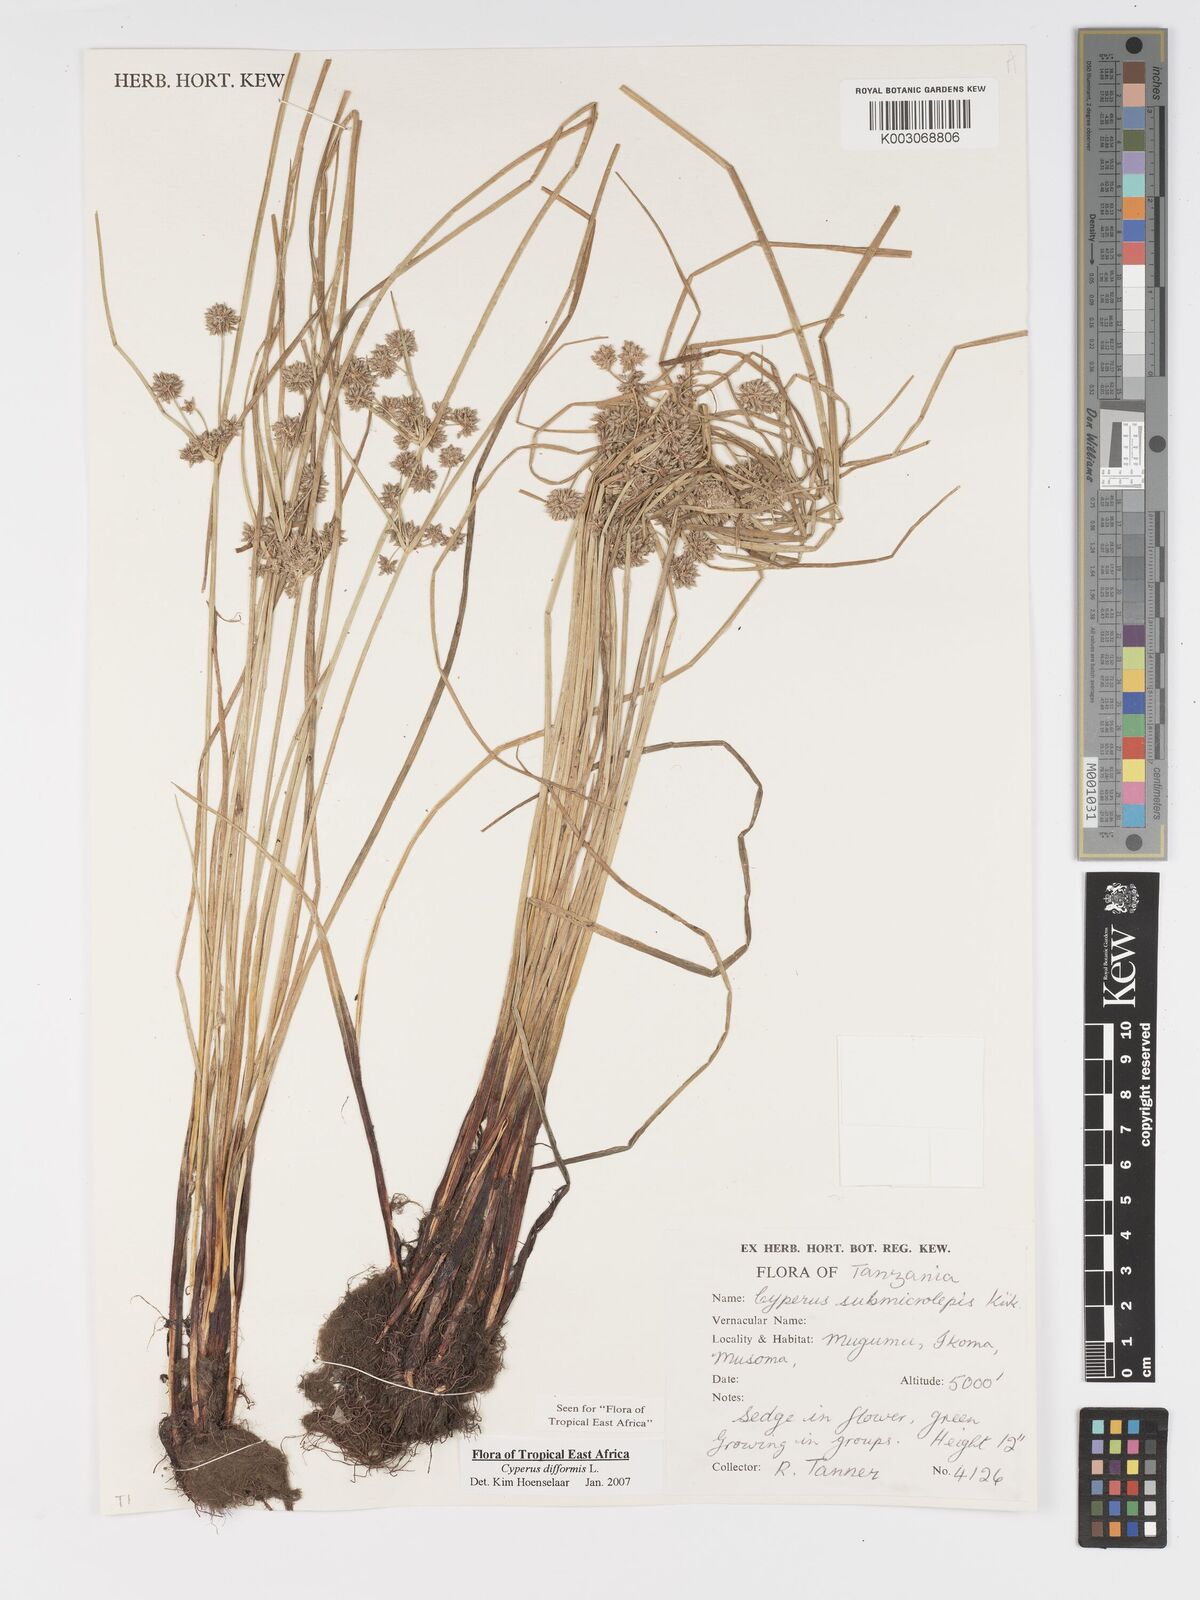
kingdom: Plantae
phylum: Tracheophyta
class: Liliopsida
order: Poales
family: Cyperaceae
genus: Cyperus
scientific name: Cyperus difformis
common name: Variable flatsedge
